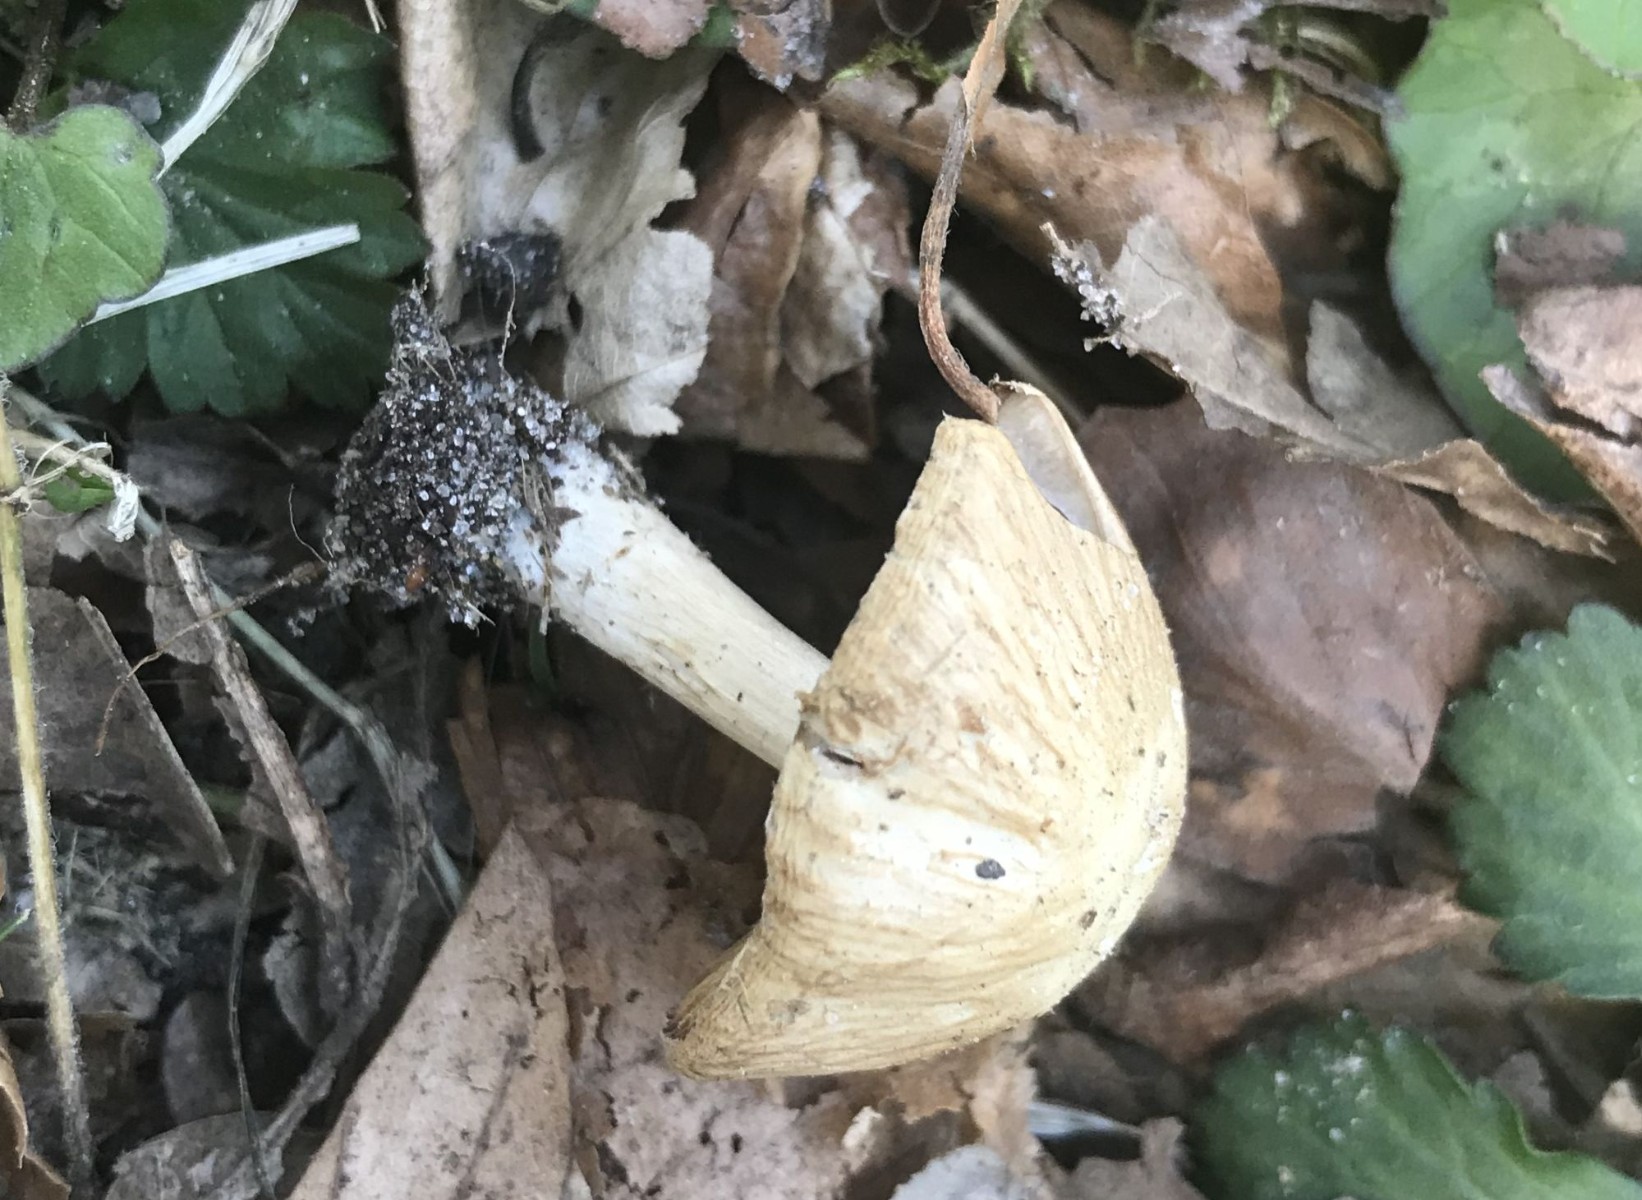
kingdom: Fungi
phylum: Basidiomycota
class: Agaricomycetes
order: Agaricales
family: Psathyrellaceae
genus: Psathyrella
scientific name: Psathyrella
